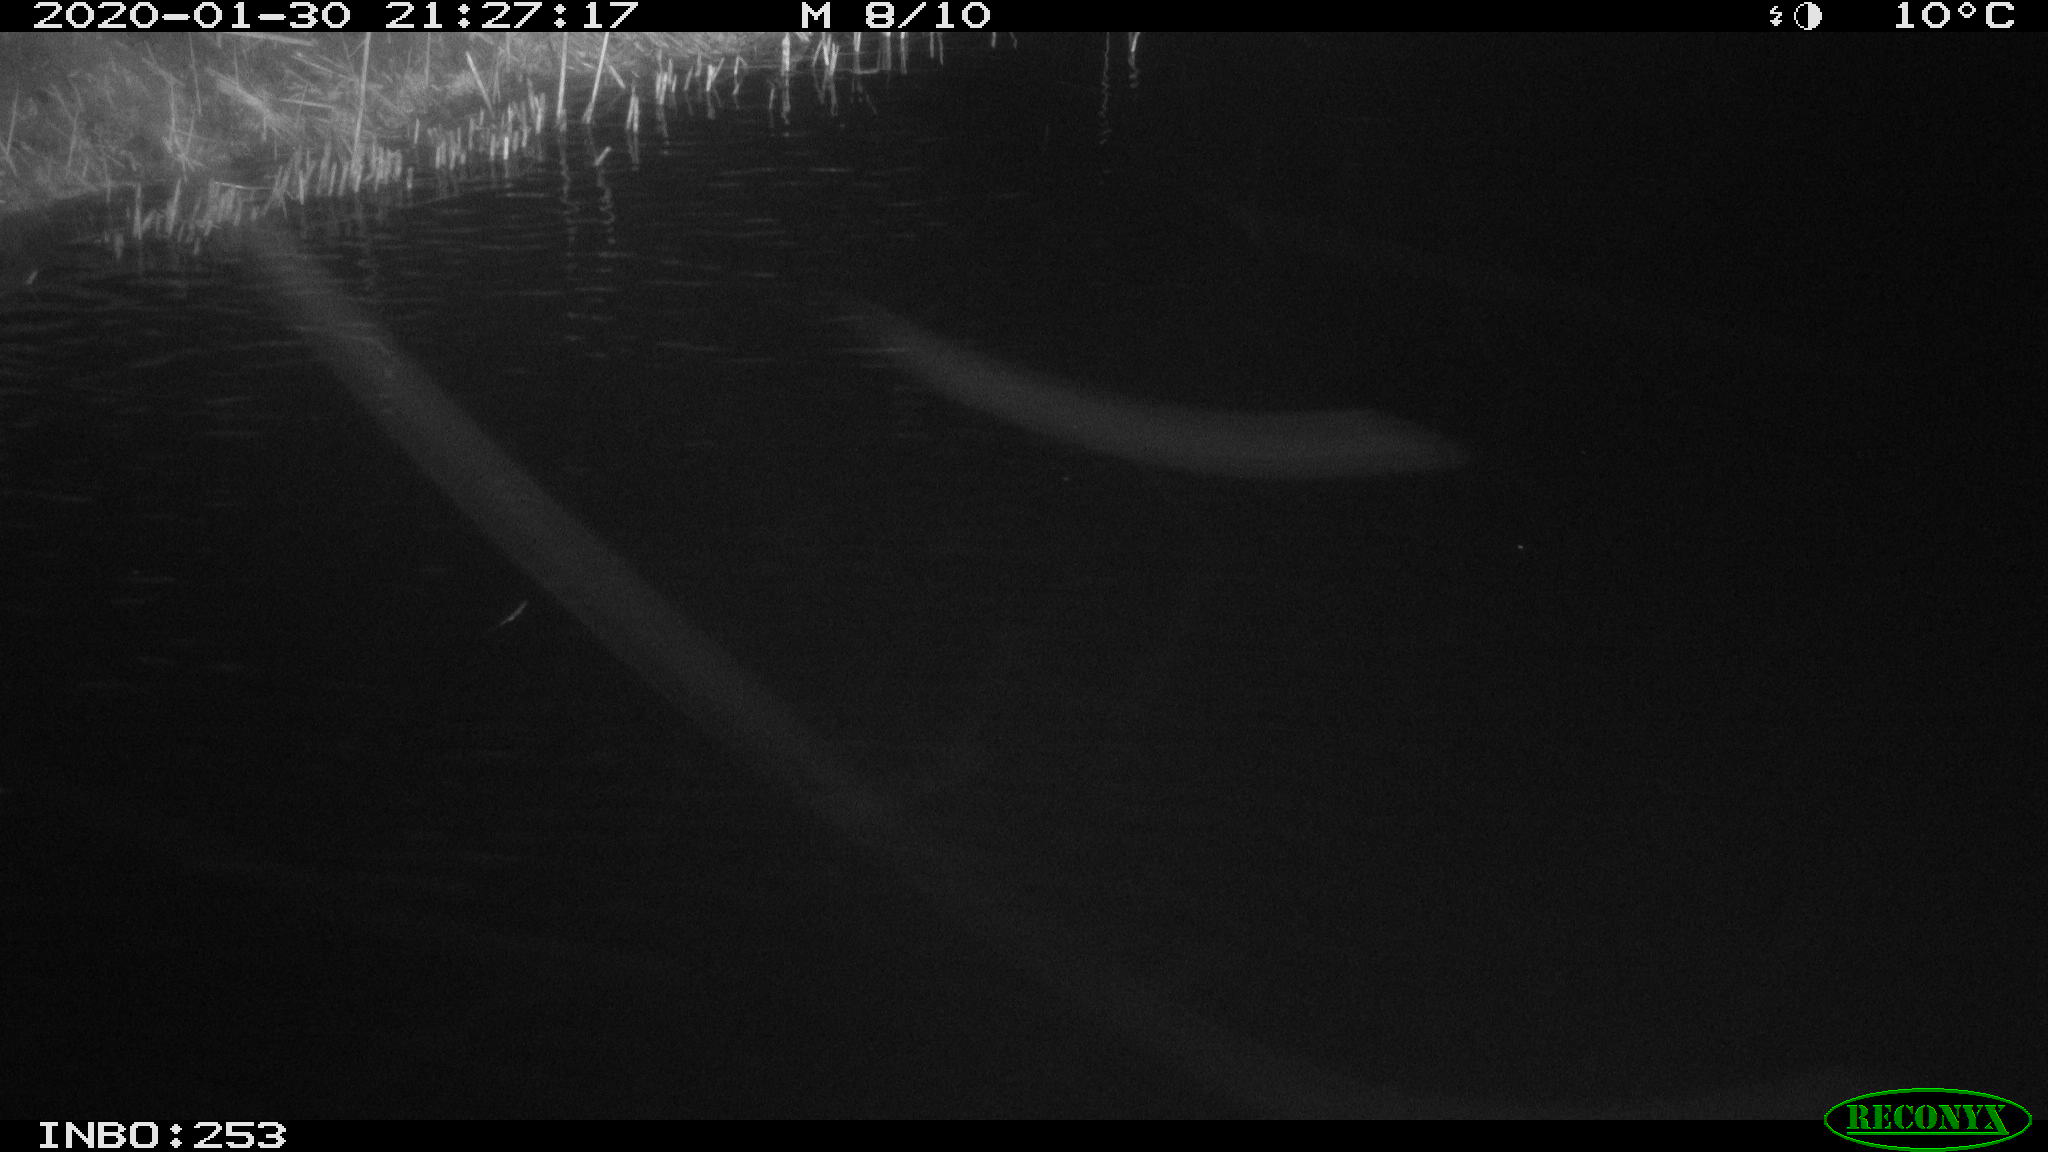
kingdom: Animalia
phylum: Chordata
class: Mammalia
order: Rodentia
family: Muridae
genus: Rattus
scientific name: Rattus norvegicus
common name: Brown rat
